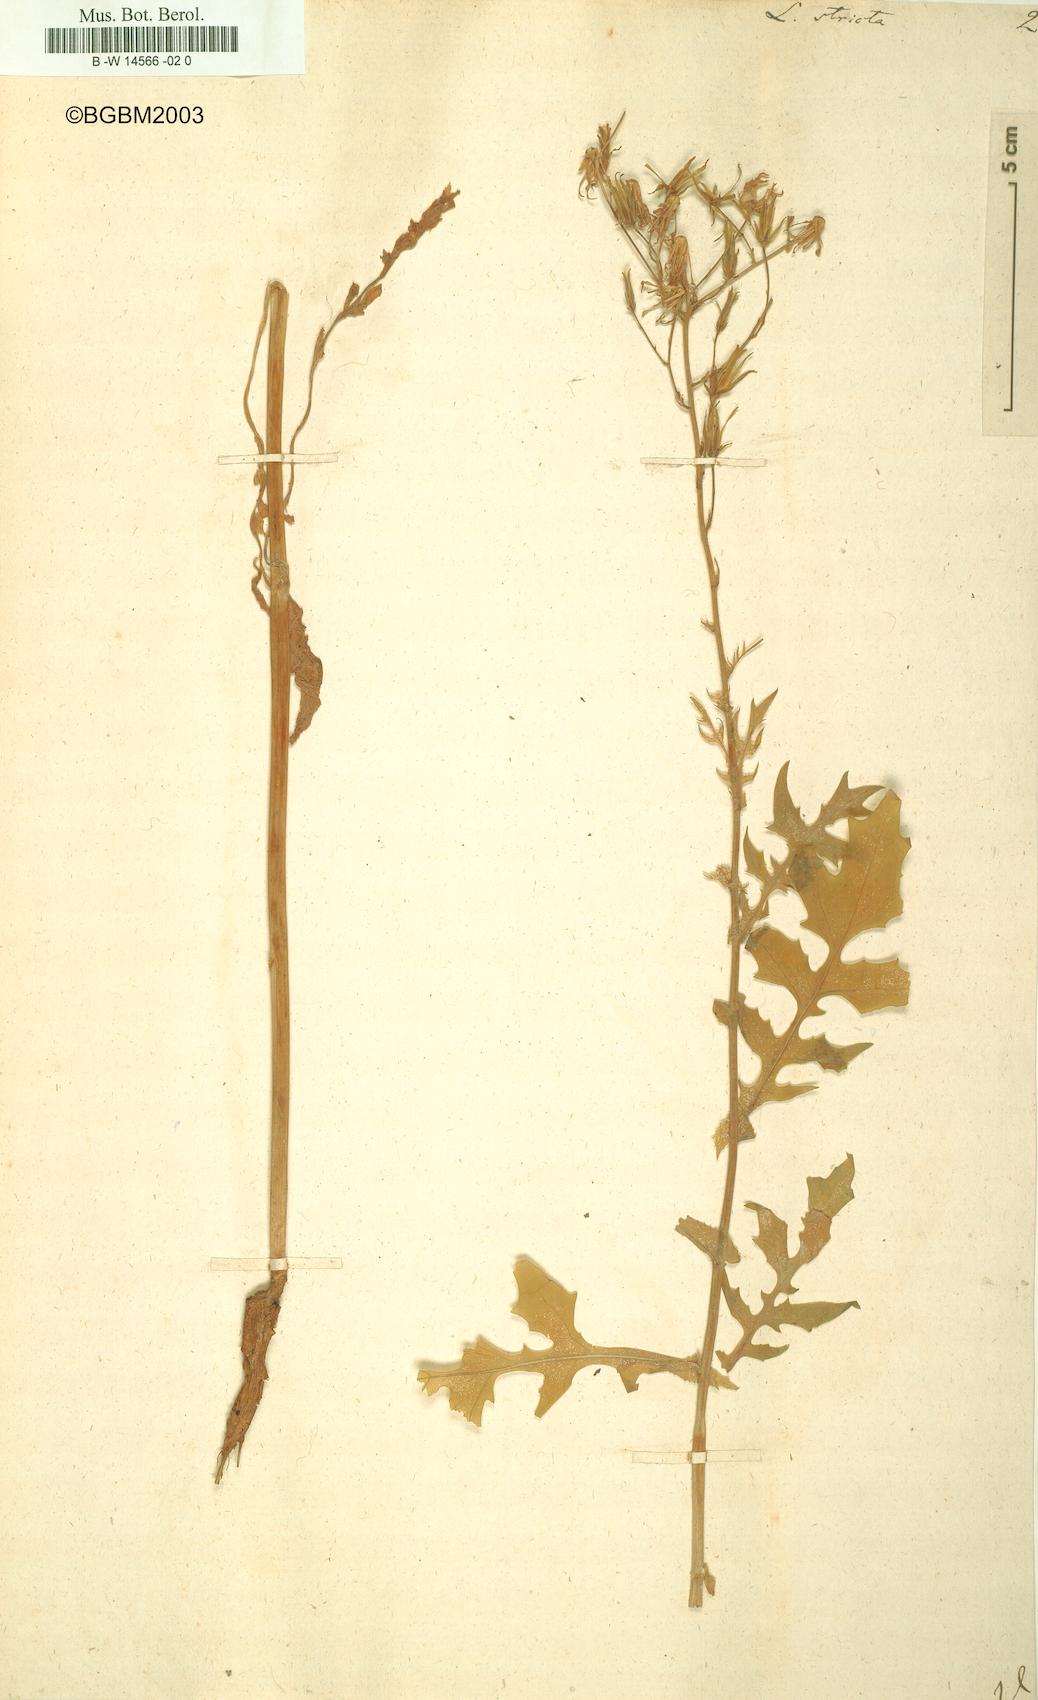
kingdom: Plantae
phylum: Tracheophyta
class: Magnoliopsida
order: Asterales
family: Asteraceae
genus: Lactuca
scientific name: Lactuca quercina
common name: Wild lettuce
